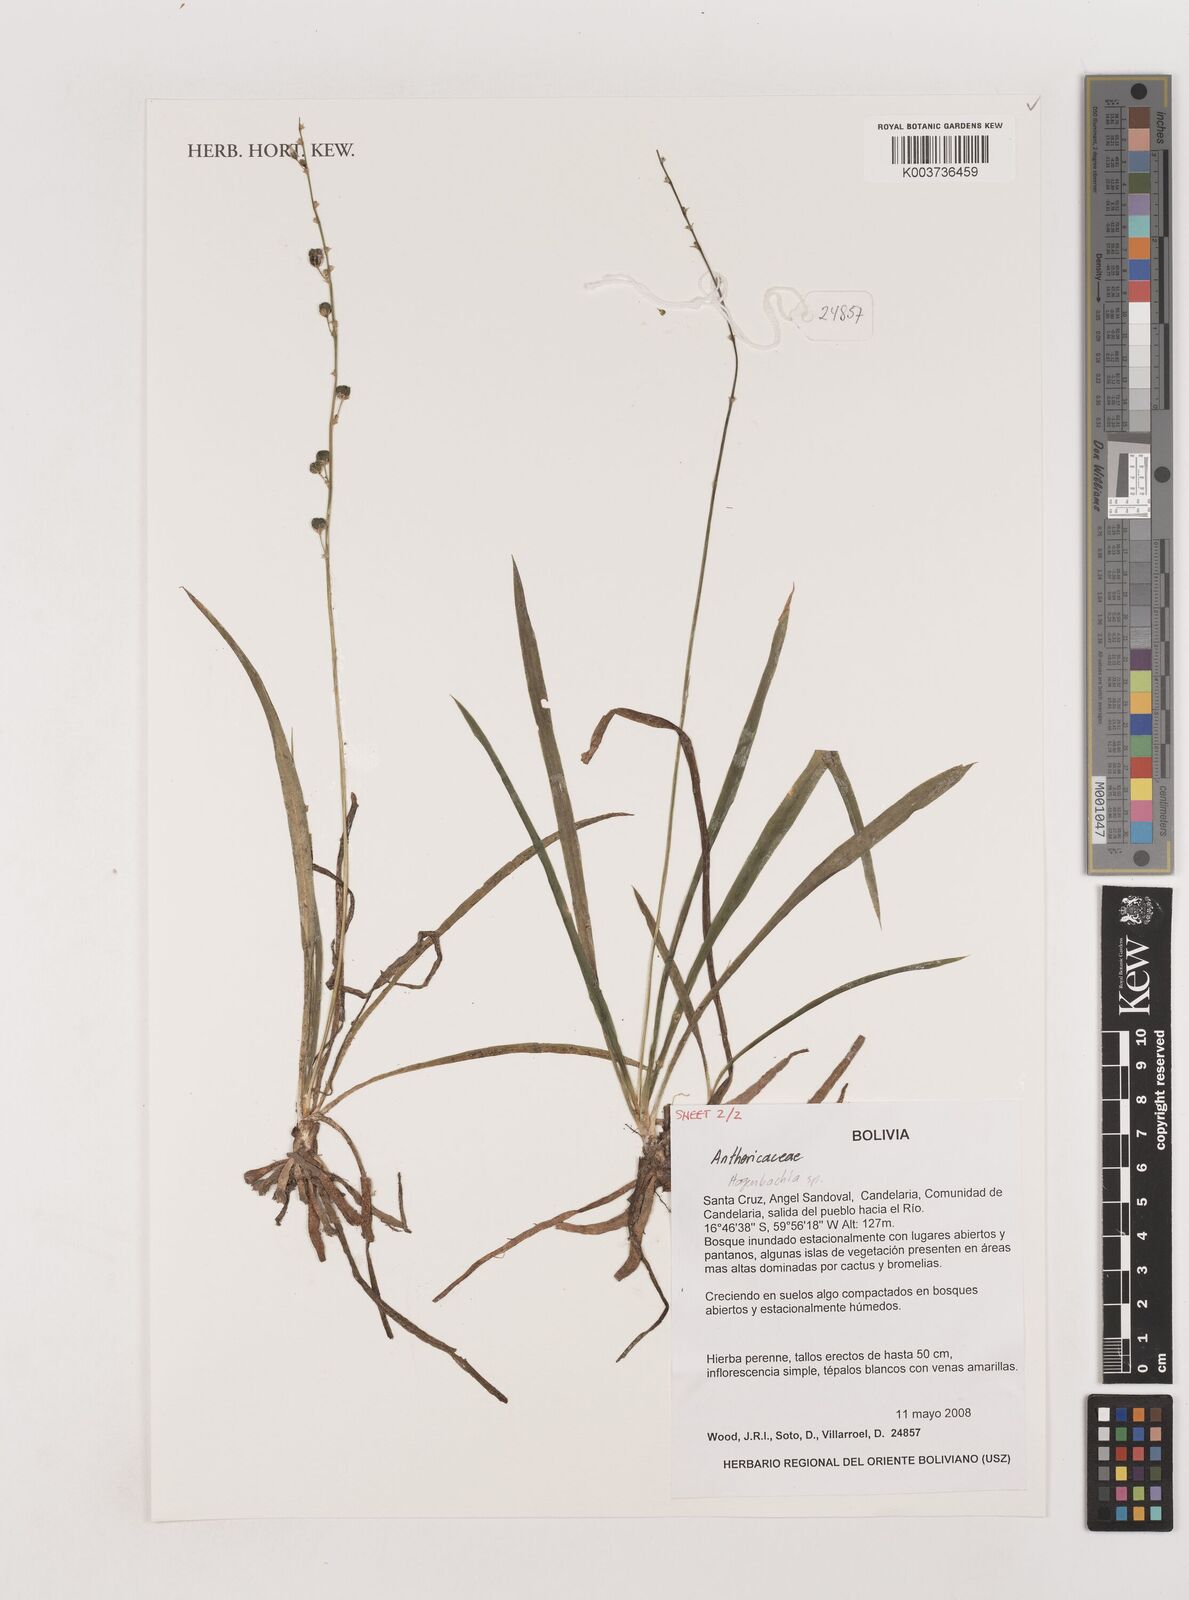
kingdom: Plantae
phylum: Tracheophyta
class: Liliopsida
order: Asparagales
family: Asparagaceae
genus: Hagenbachia
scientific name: Hagenbachia
